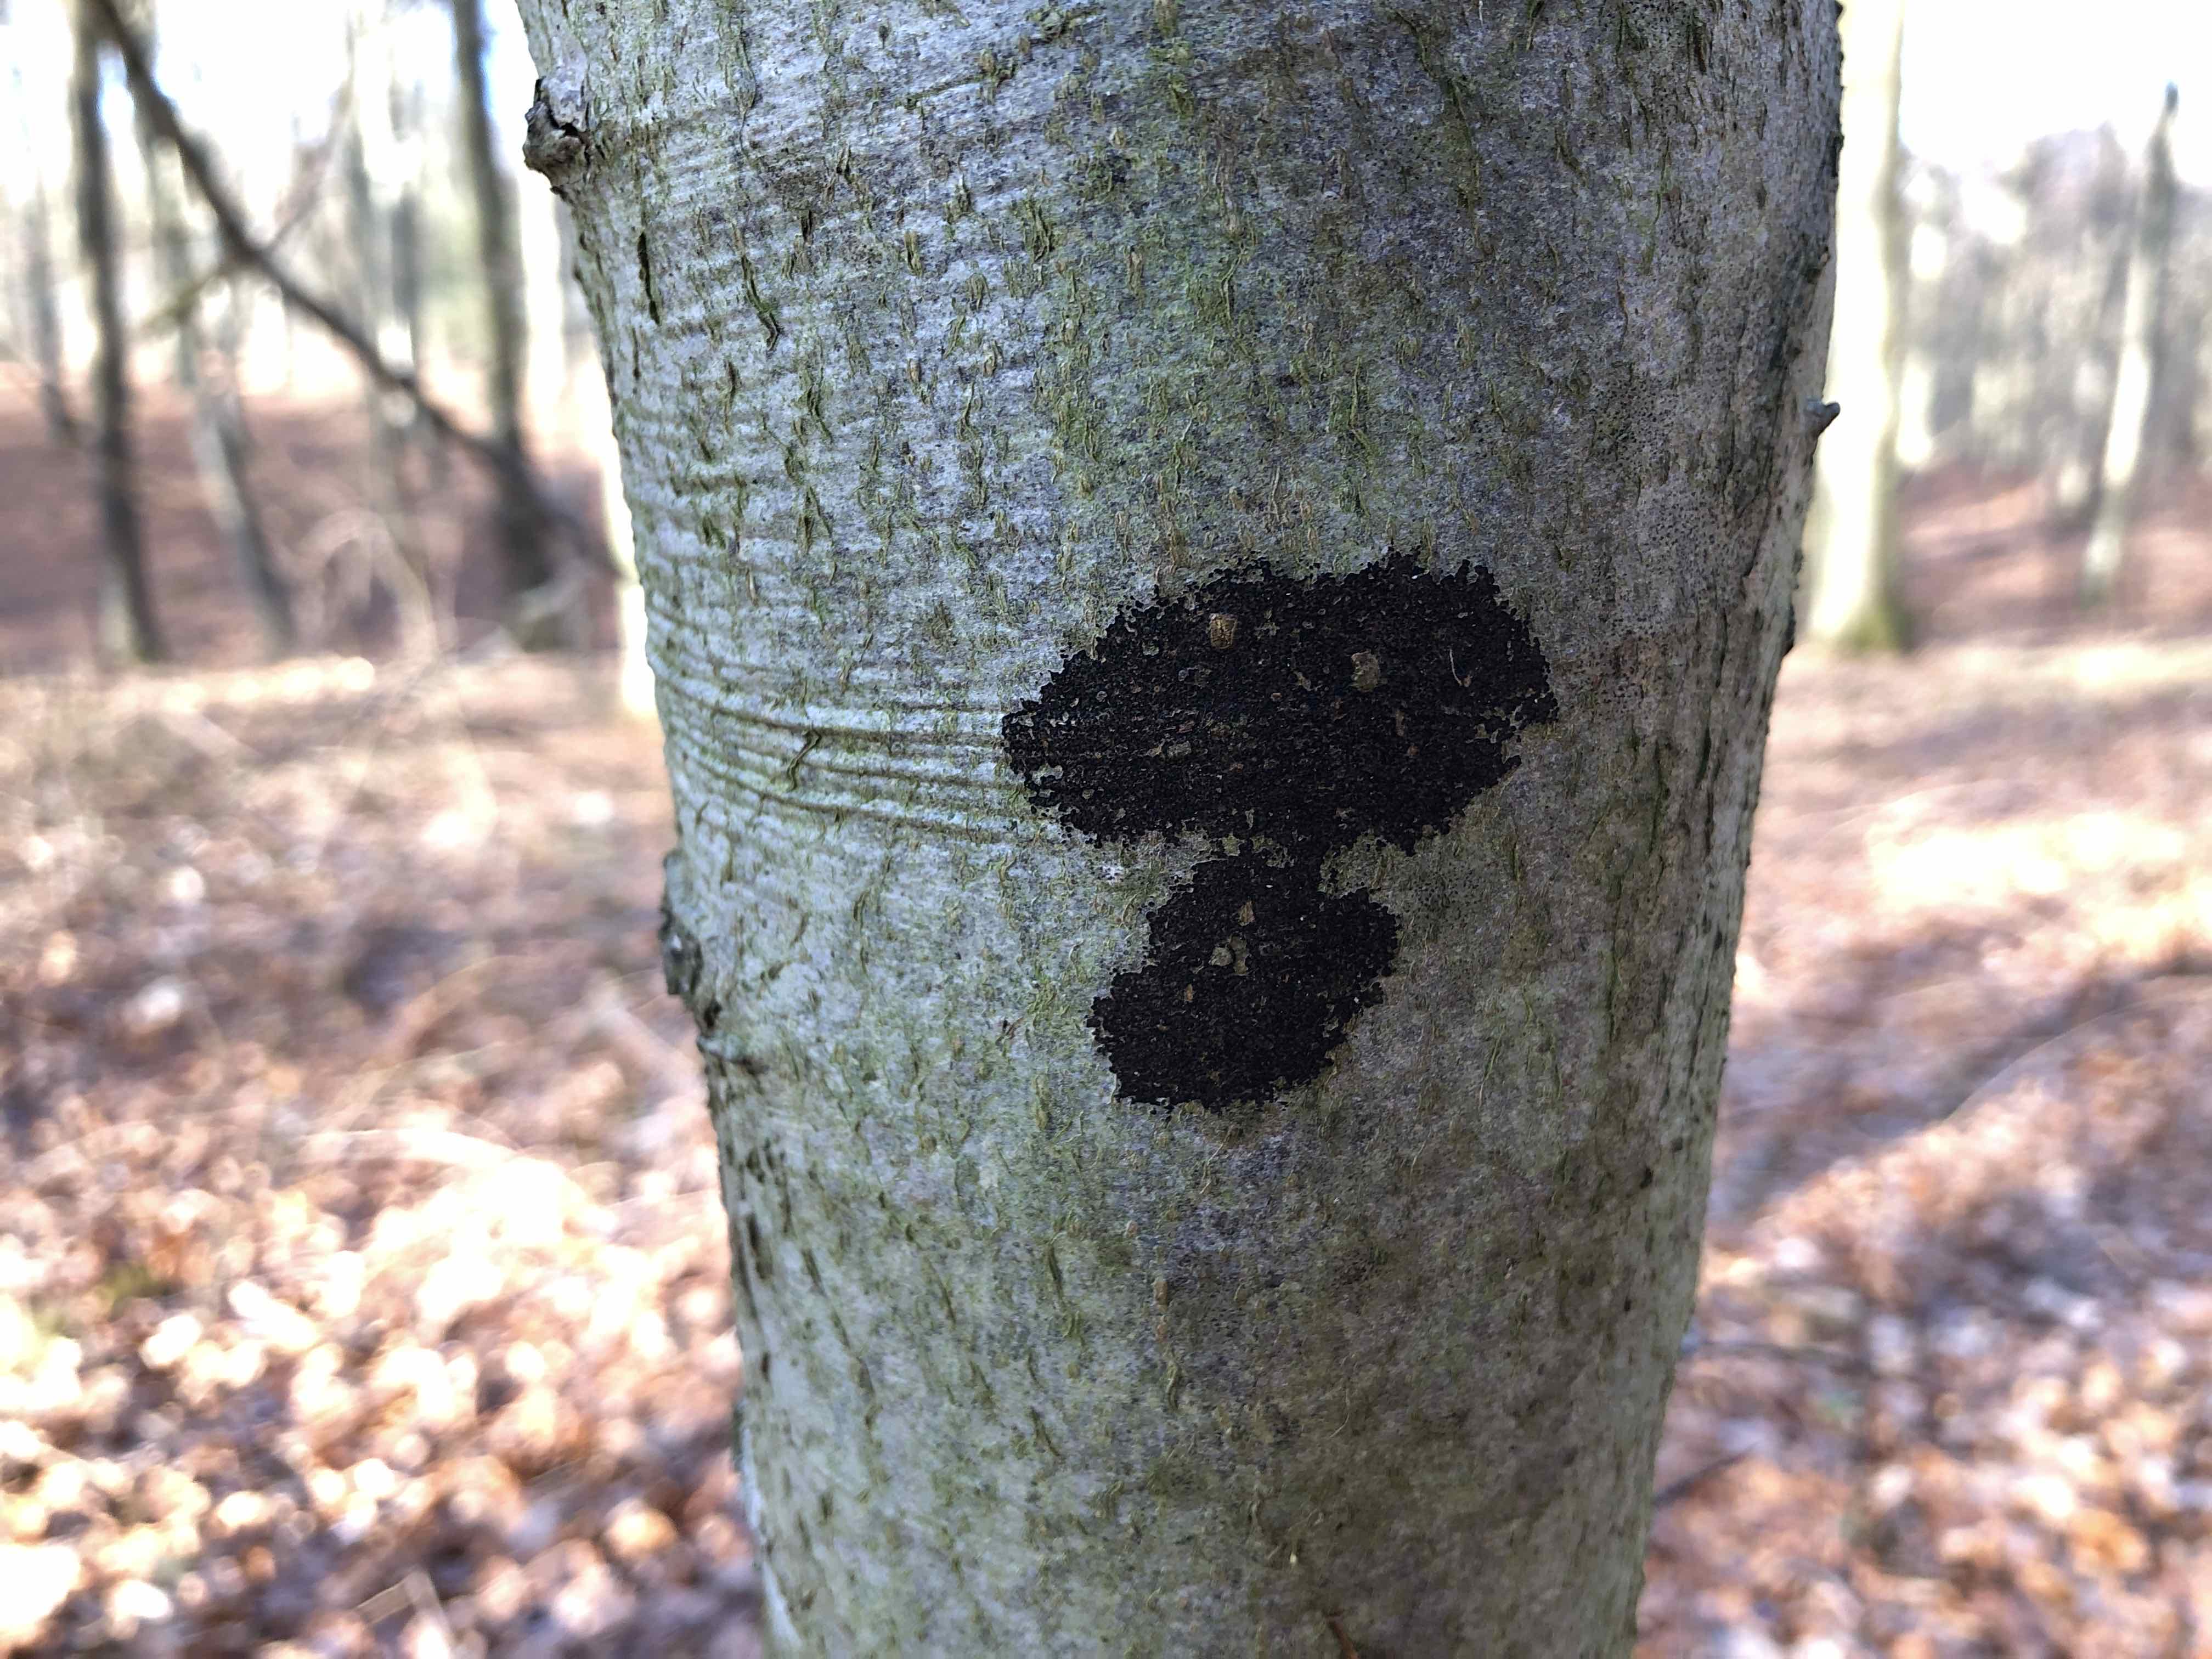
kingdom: Fungi
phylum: Ascomycota
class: Leotiomycetes
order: Rhytismatales
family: Ascodichaenaceae
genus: Ascodichaena
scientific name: Ascodichaena rugosa
